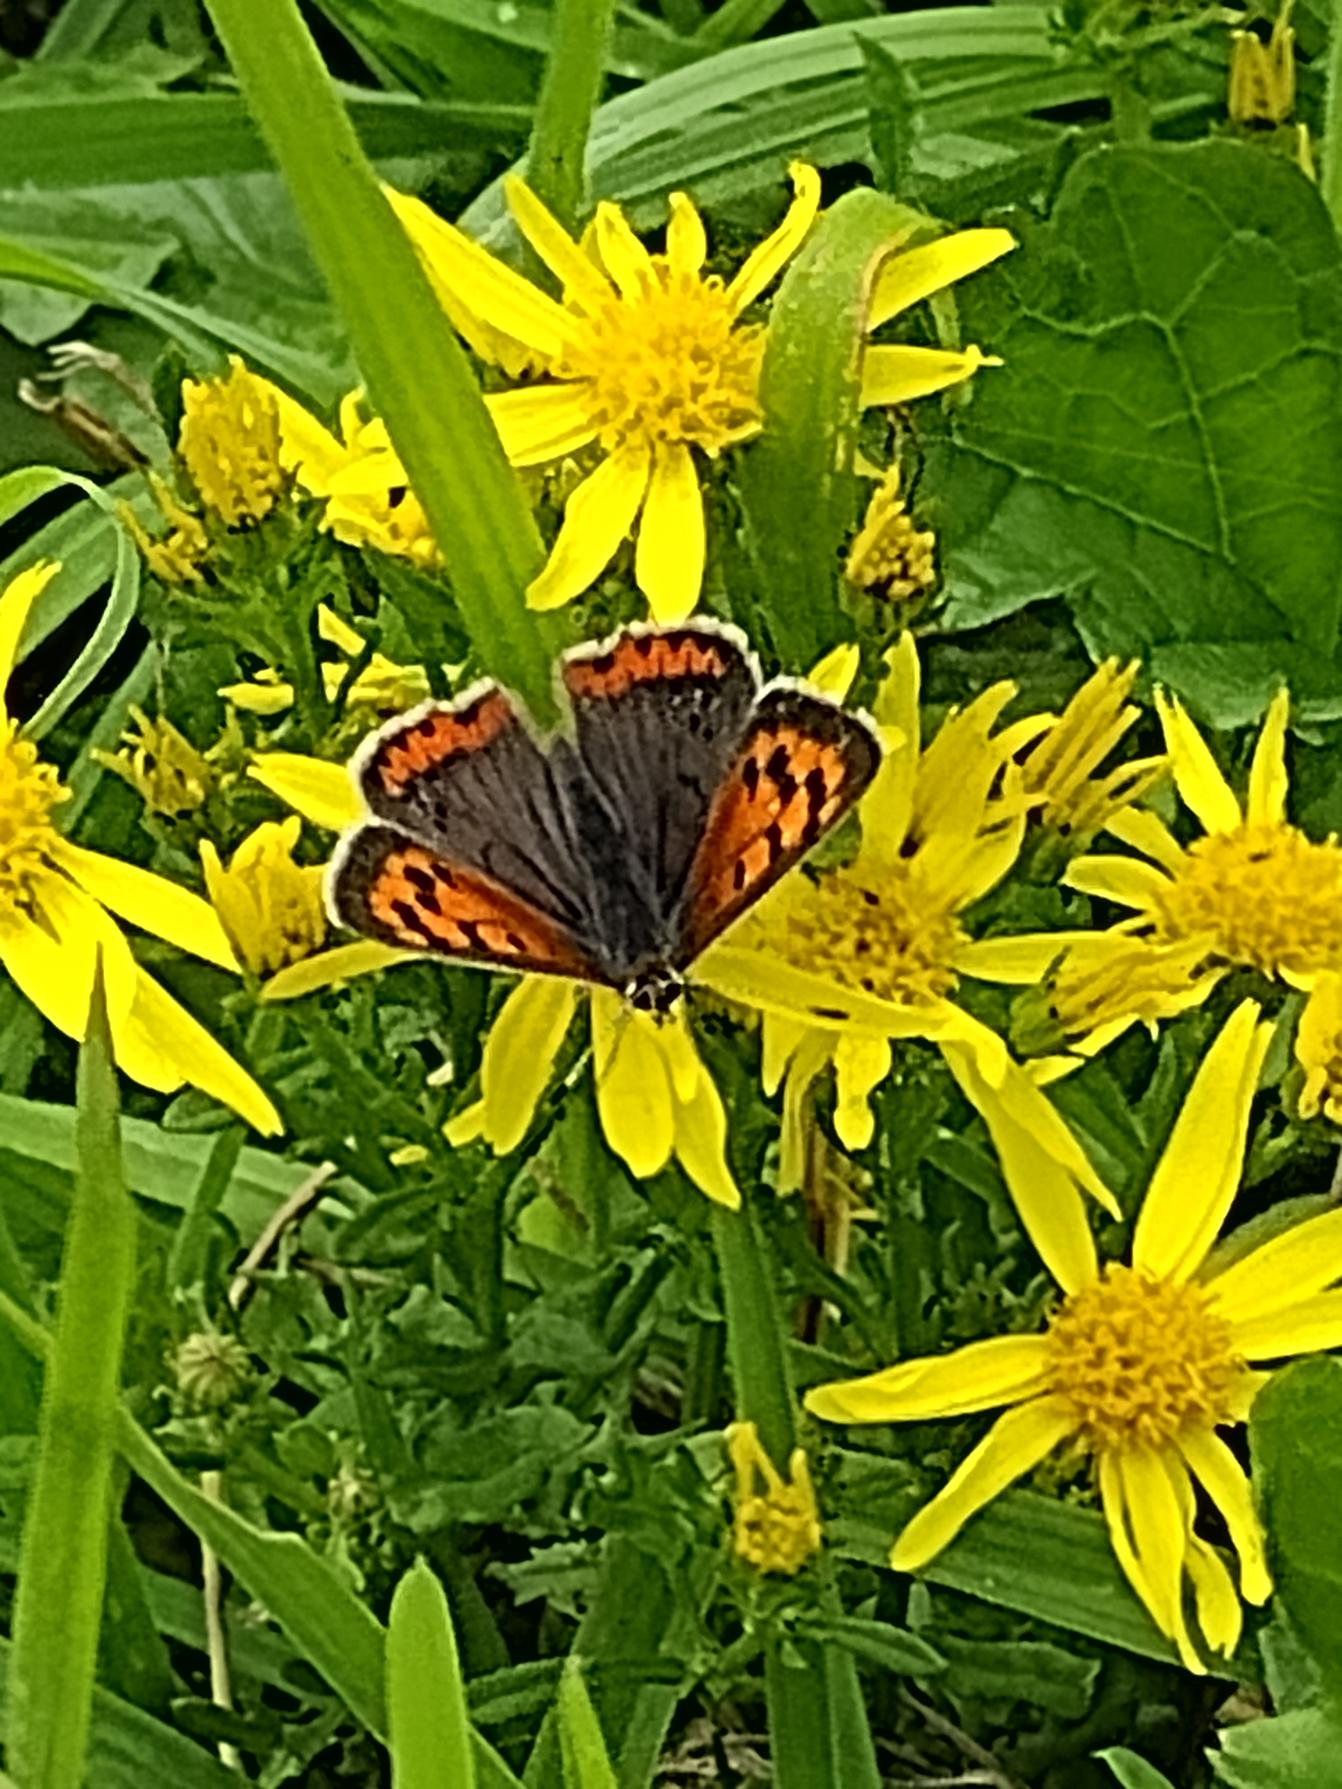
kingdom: Animalia
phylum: Arthropoda
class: Insecta
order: Lepidoptera
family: Lycaenidae
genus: Lycaena
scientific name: Lycaena phlaeas
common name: Lille ildfugl
